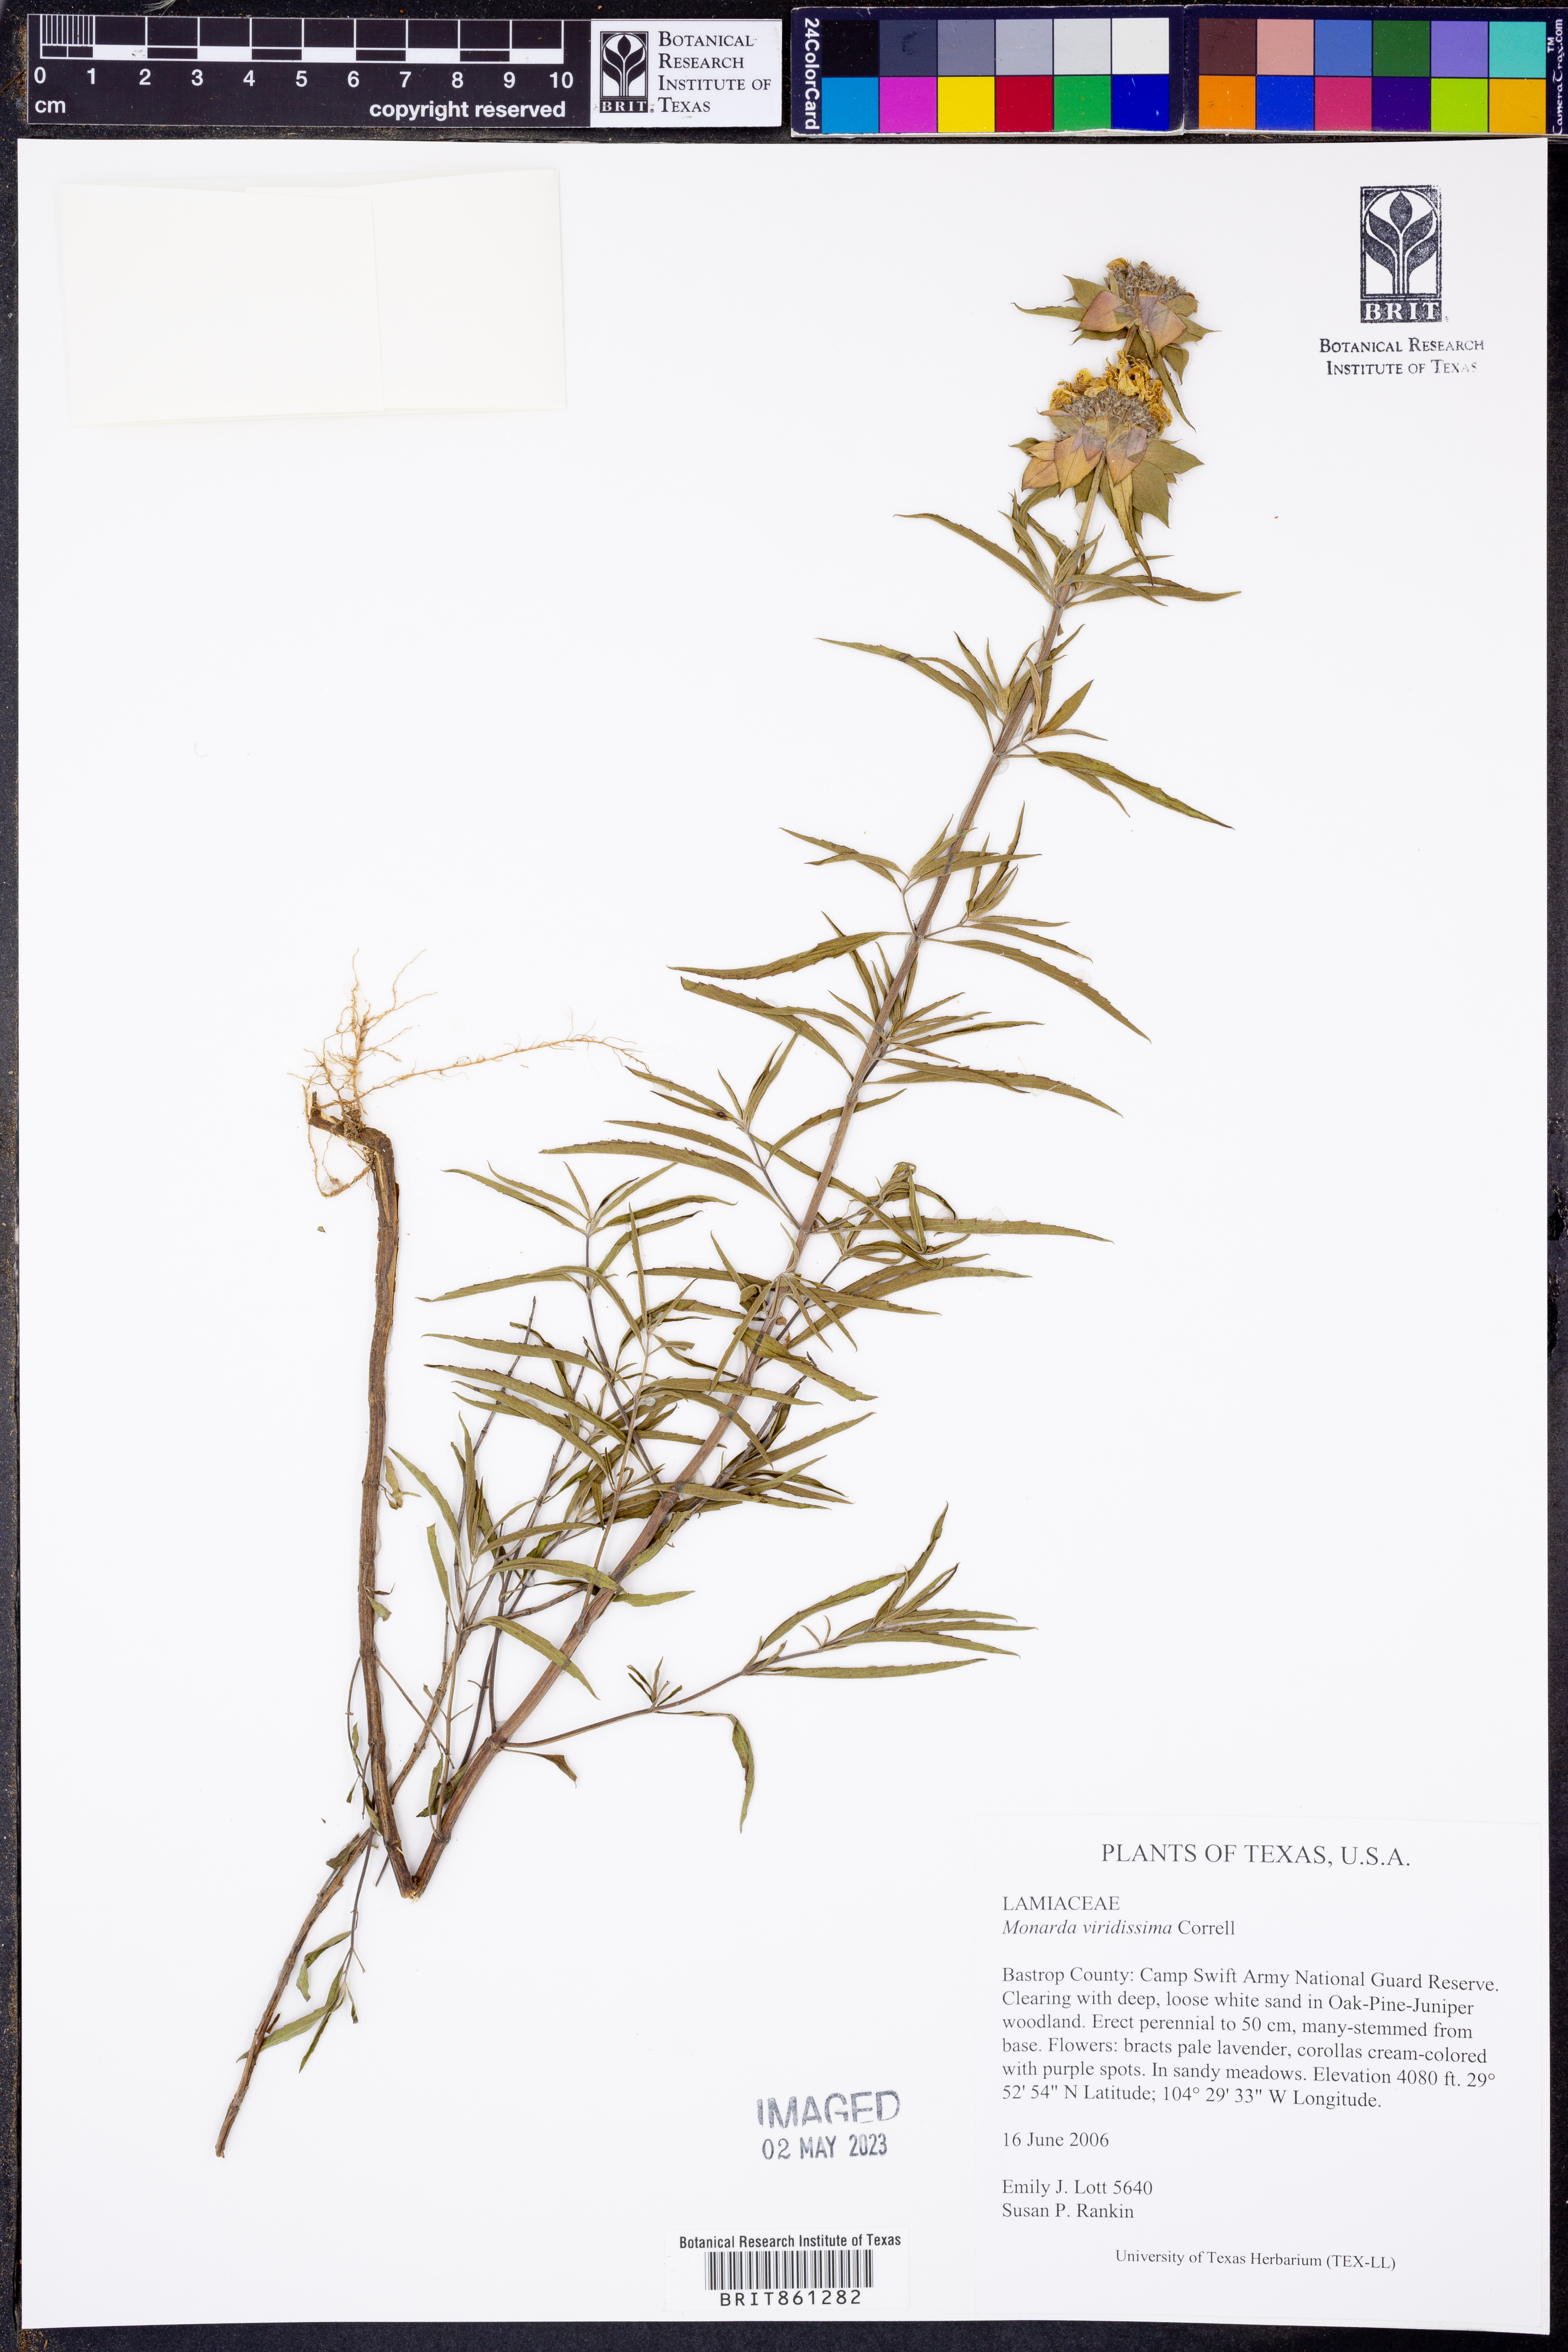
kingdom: Plantae
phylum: Tracheophyta
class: Magnoliopsida
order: Lamiales
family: Lamiaceae
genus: Monarda
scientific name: Monarda viridissima
